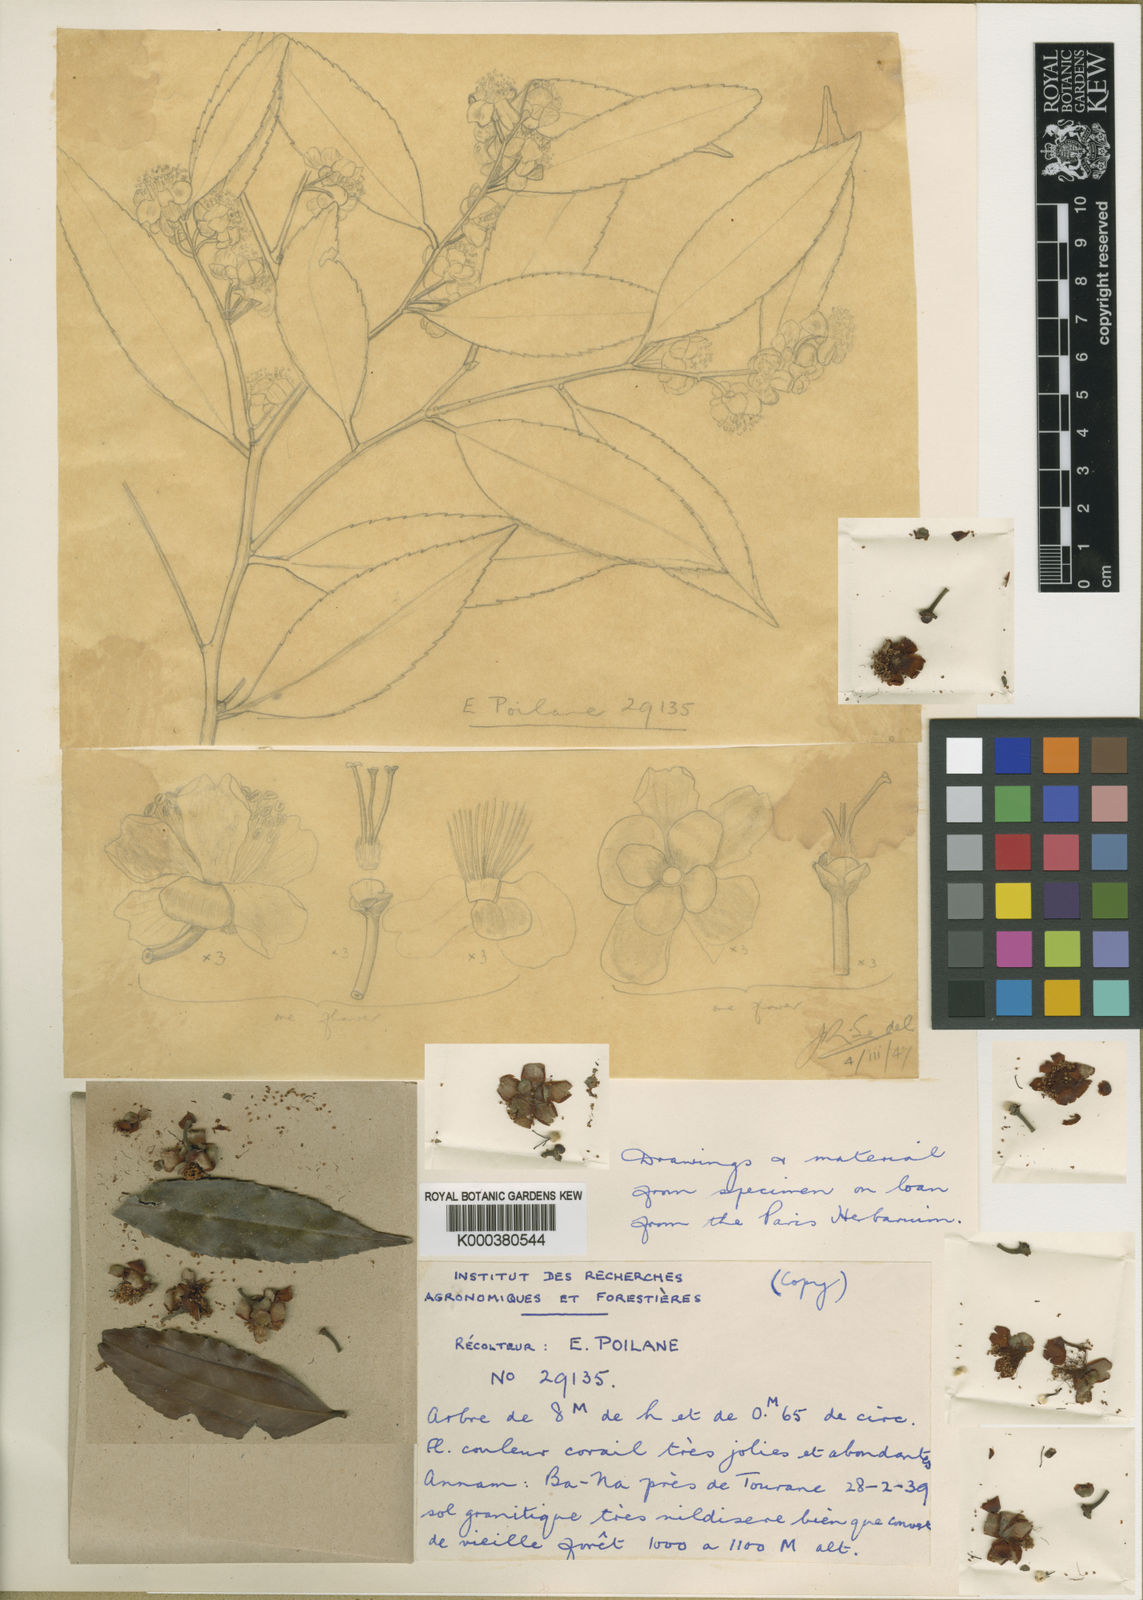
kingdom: Plantae
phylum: Tracheophyta
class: Magnoliopsida
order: Ericales
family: Theaceae
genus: Camellia
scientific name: Camellia corallina
